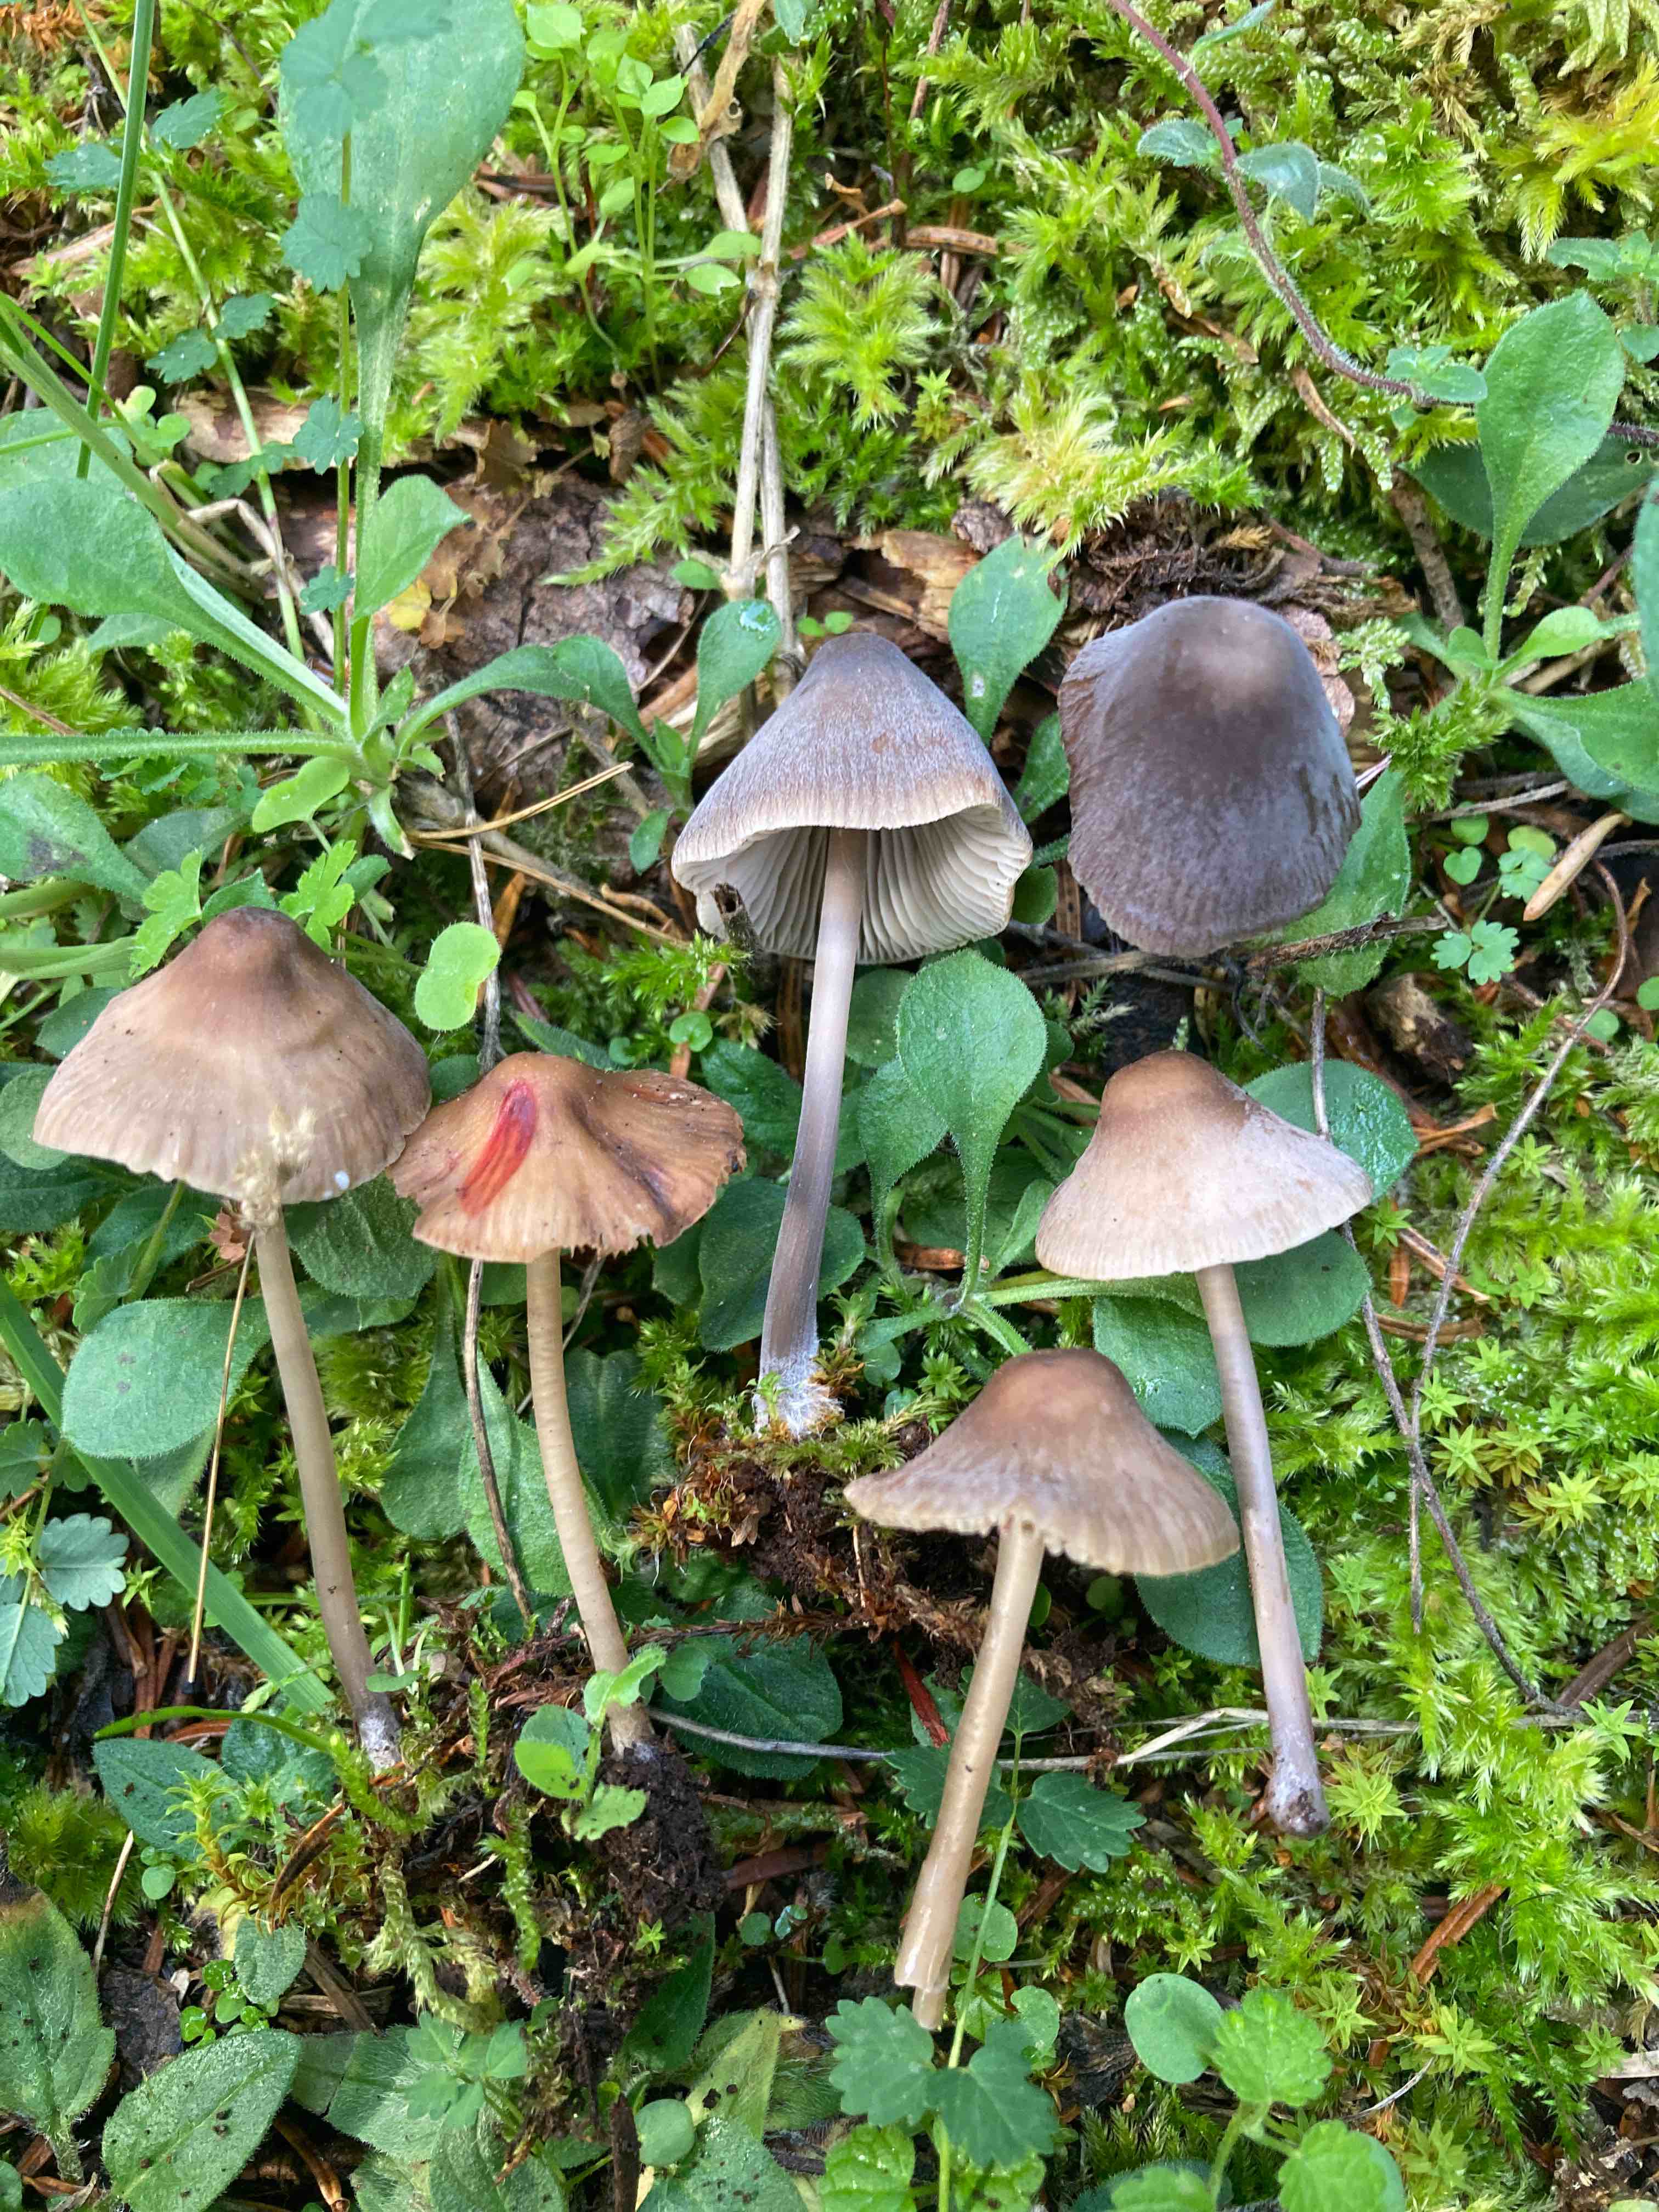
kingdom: Fungi
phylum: Basidiomycota
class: Agaricomycetes
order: Agaricales
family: Mycenaceae
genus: Mycena
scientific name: Mycena erubescens
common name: galde-huesvamp
